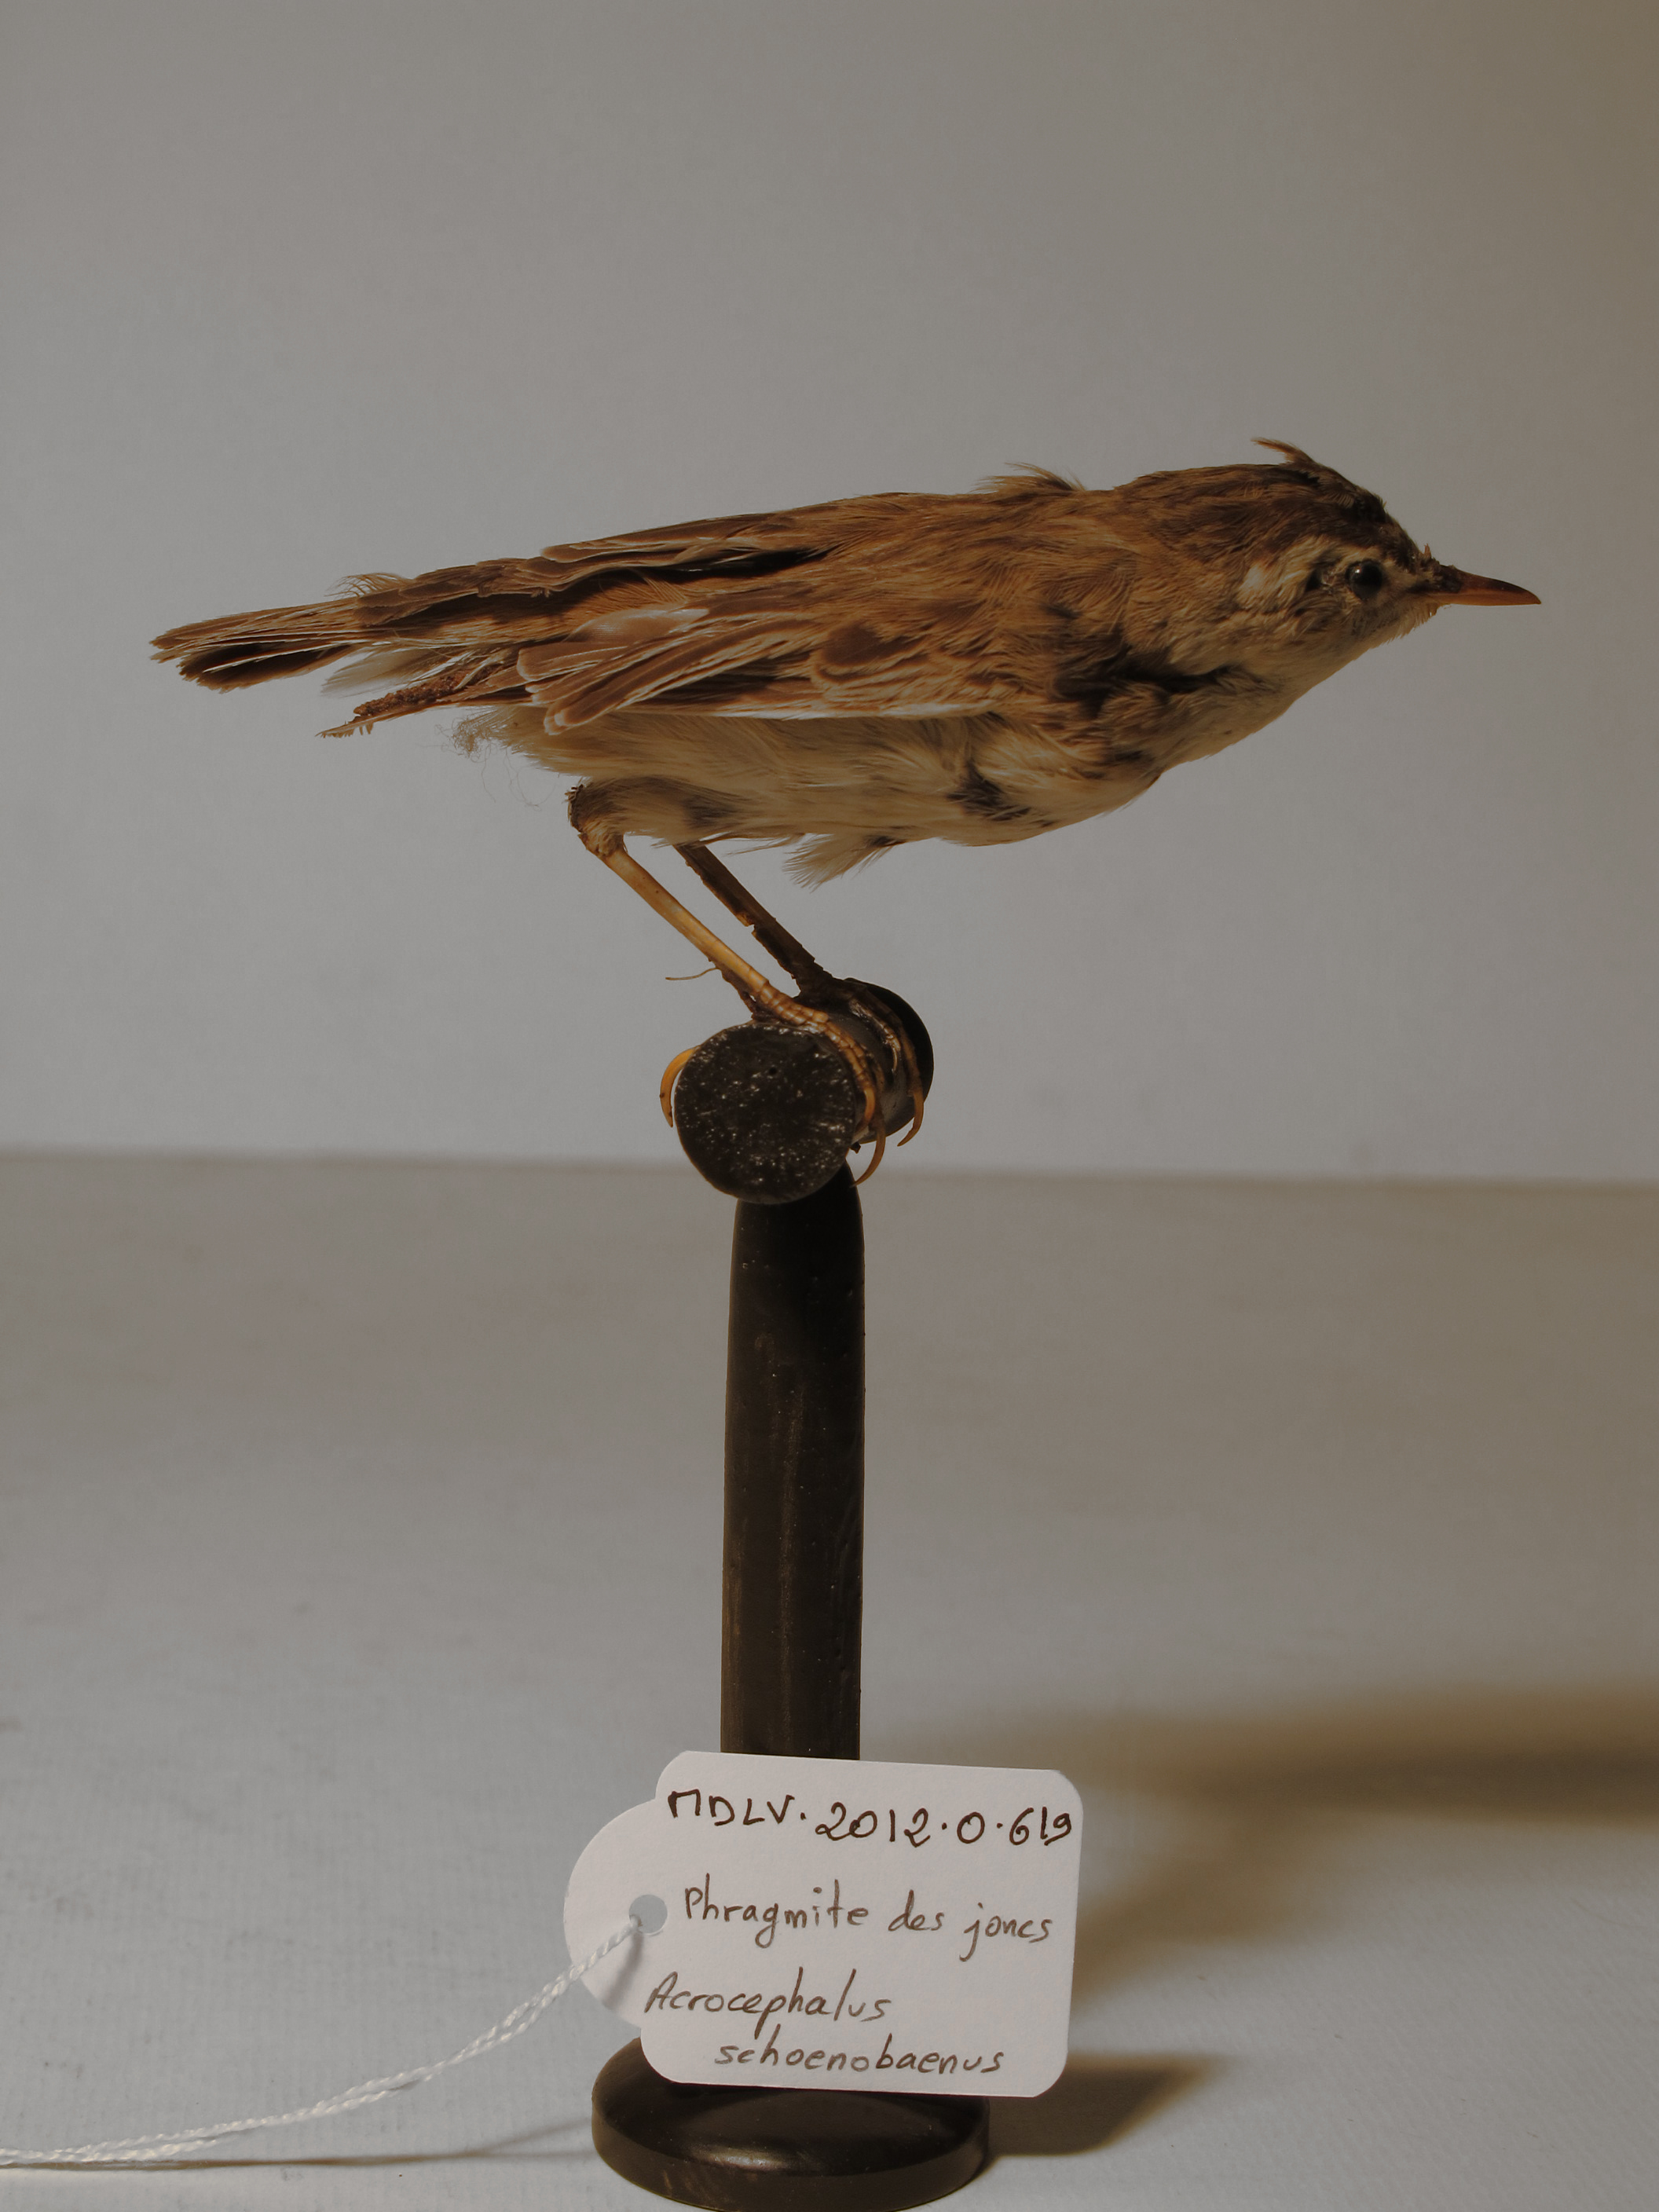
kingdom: Animalia
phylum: Chordata
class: Aves
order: Passeriformes
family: Acrocephalidae
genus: Acrocephalus
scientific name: Acrocephalus schoenobaenus
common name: Sedge Warbler
